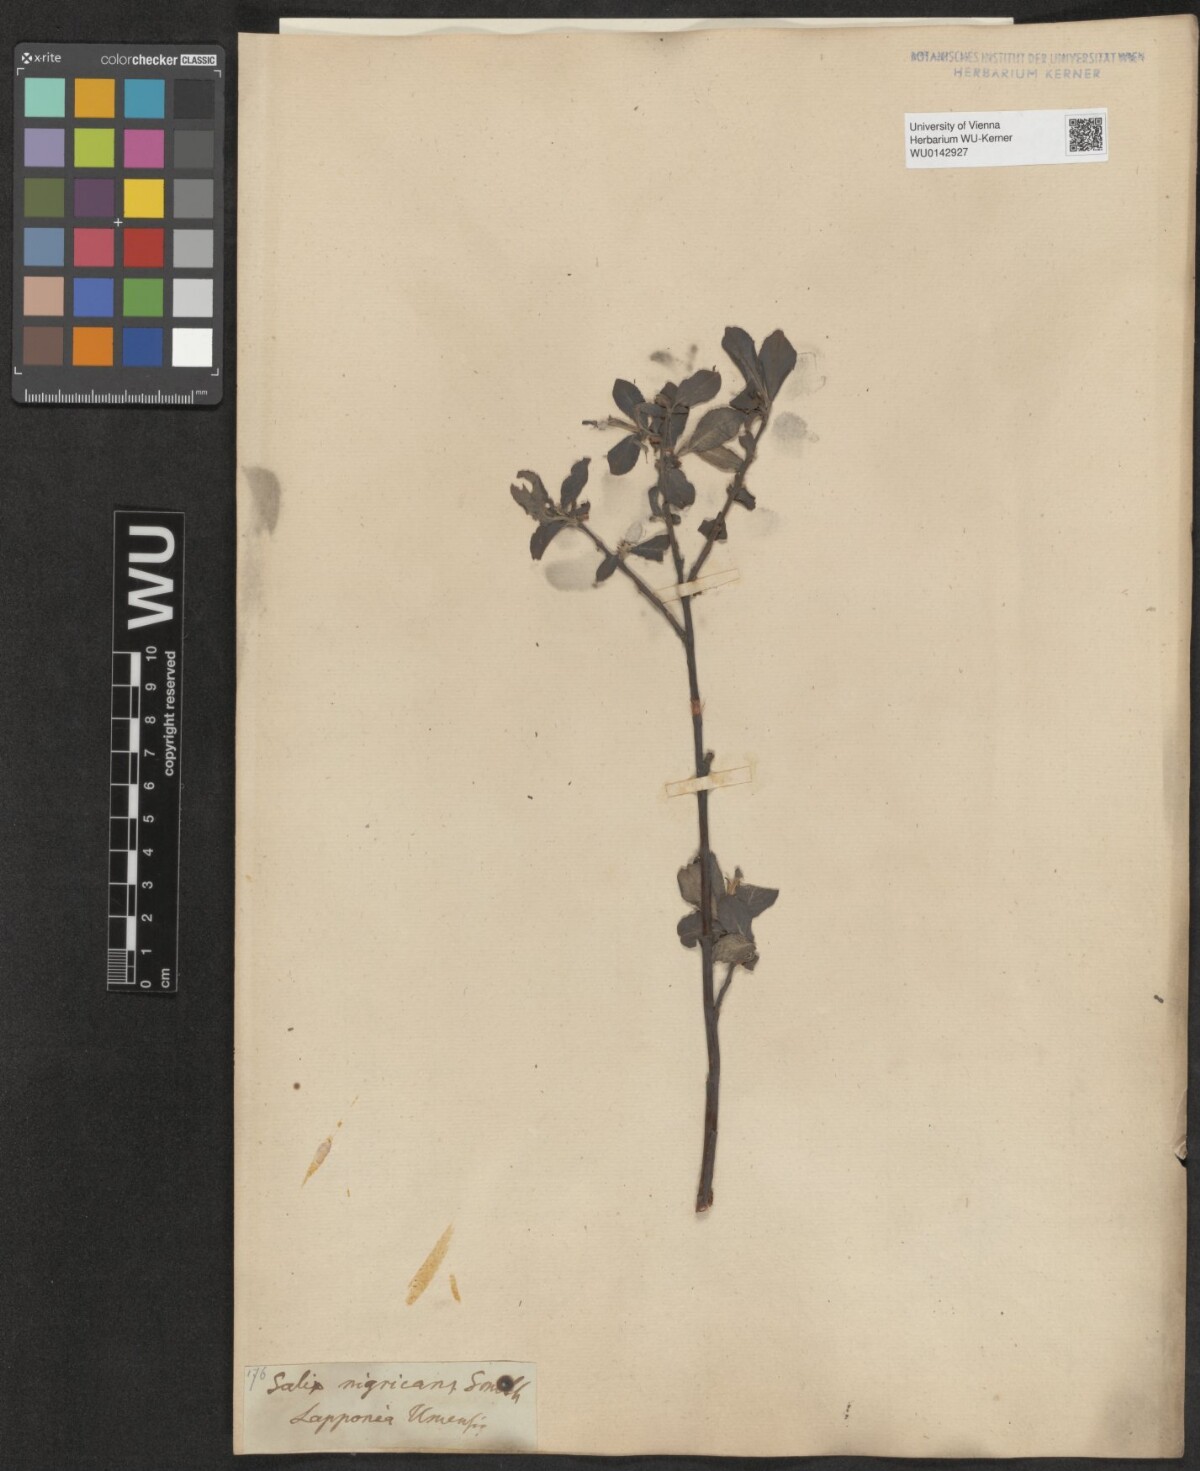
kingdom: Plantae
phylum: Tracheophyta
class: Magnoliopsida
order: Malpighiales
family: Salicaceae
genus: Salix
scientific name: Salix myrsinifolia
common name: Dark-leaved willow
